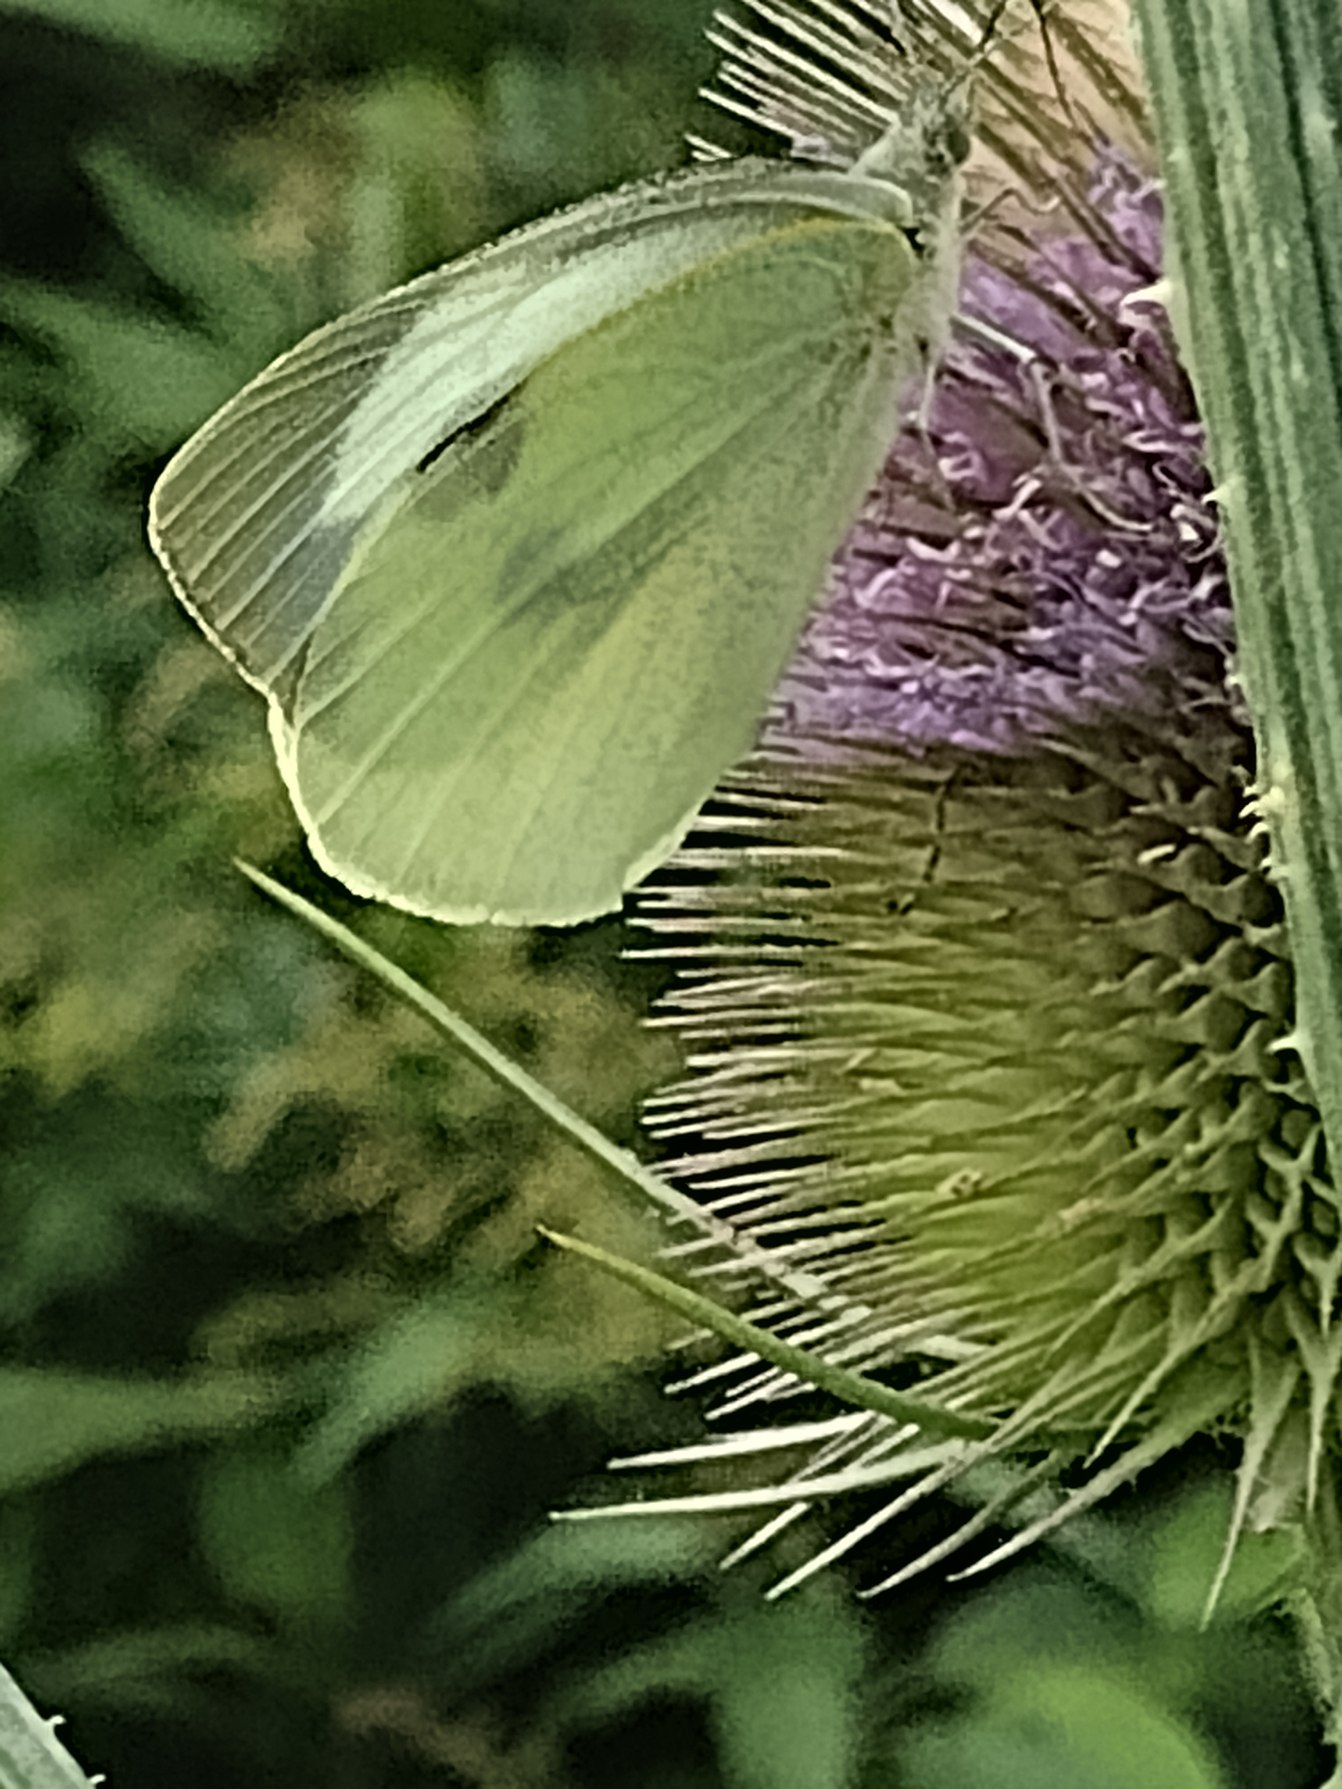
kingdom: Animalia
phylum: Arthropoda
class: Insecta
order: Lepidoptera
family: Pieridae
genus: Pieris
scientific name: Pieris brassicae
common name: Stor kålsommerfugl
